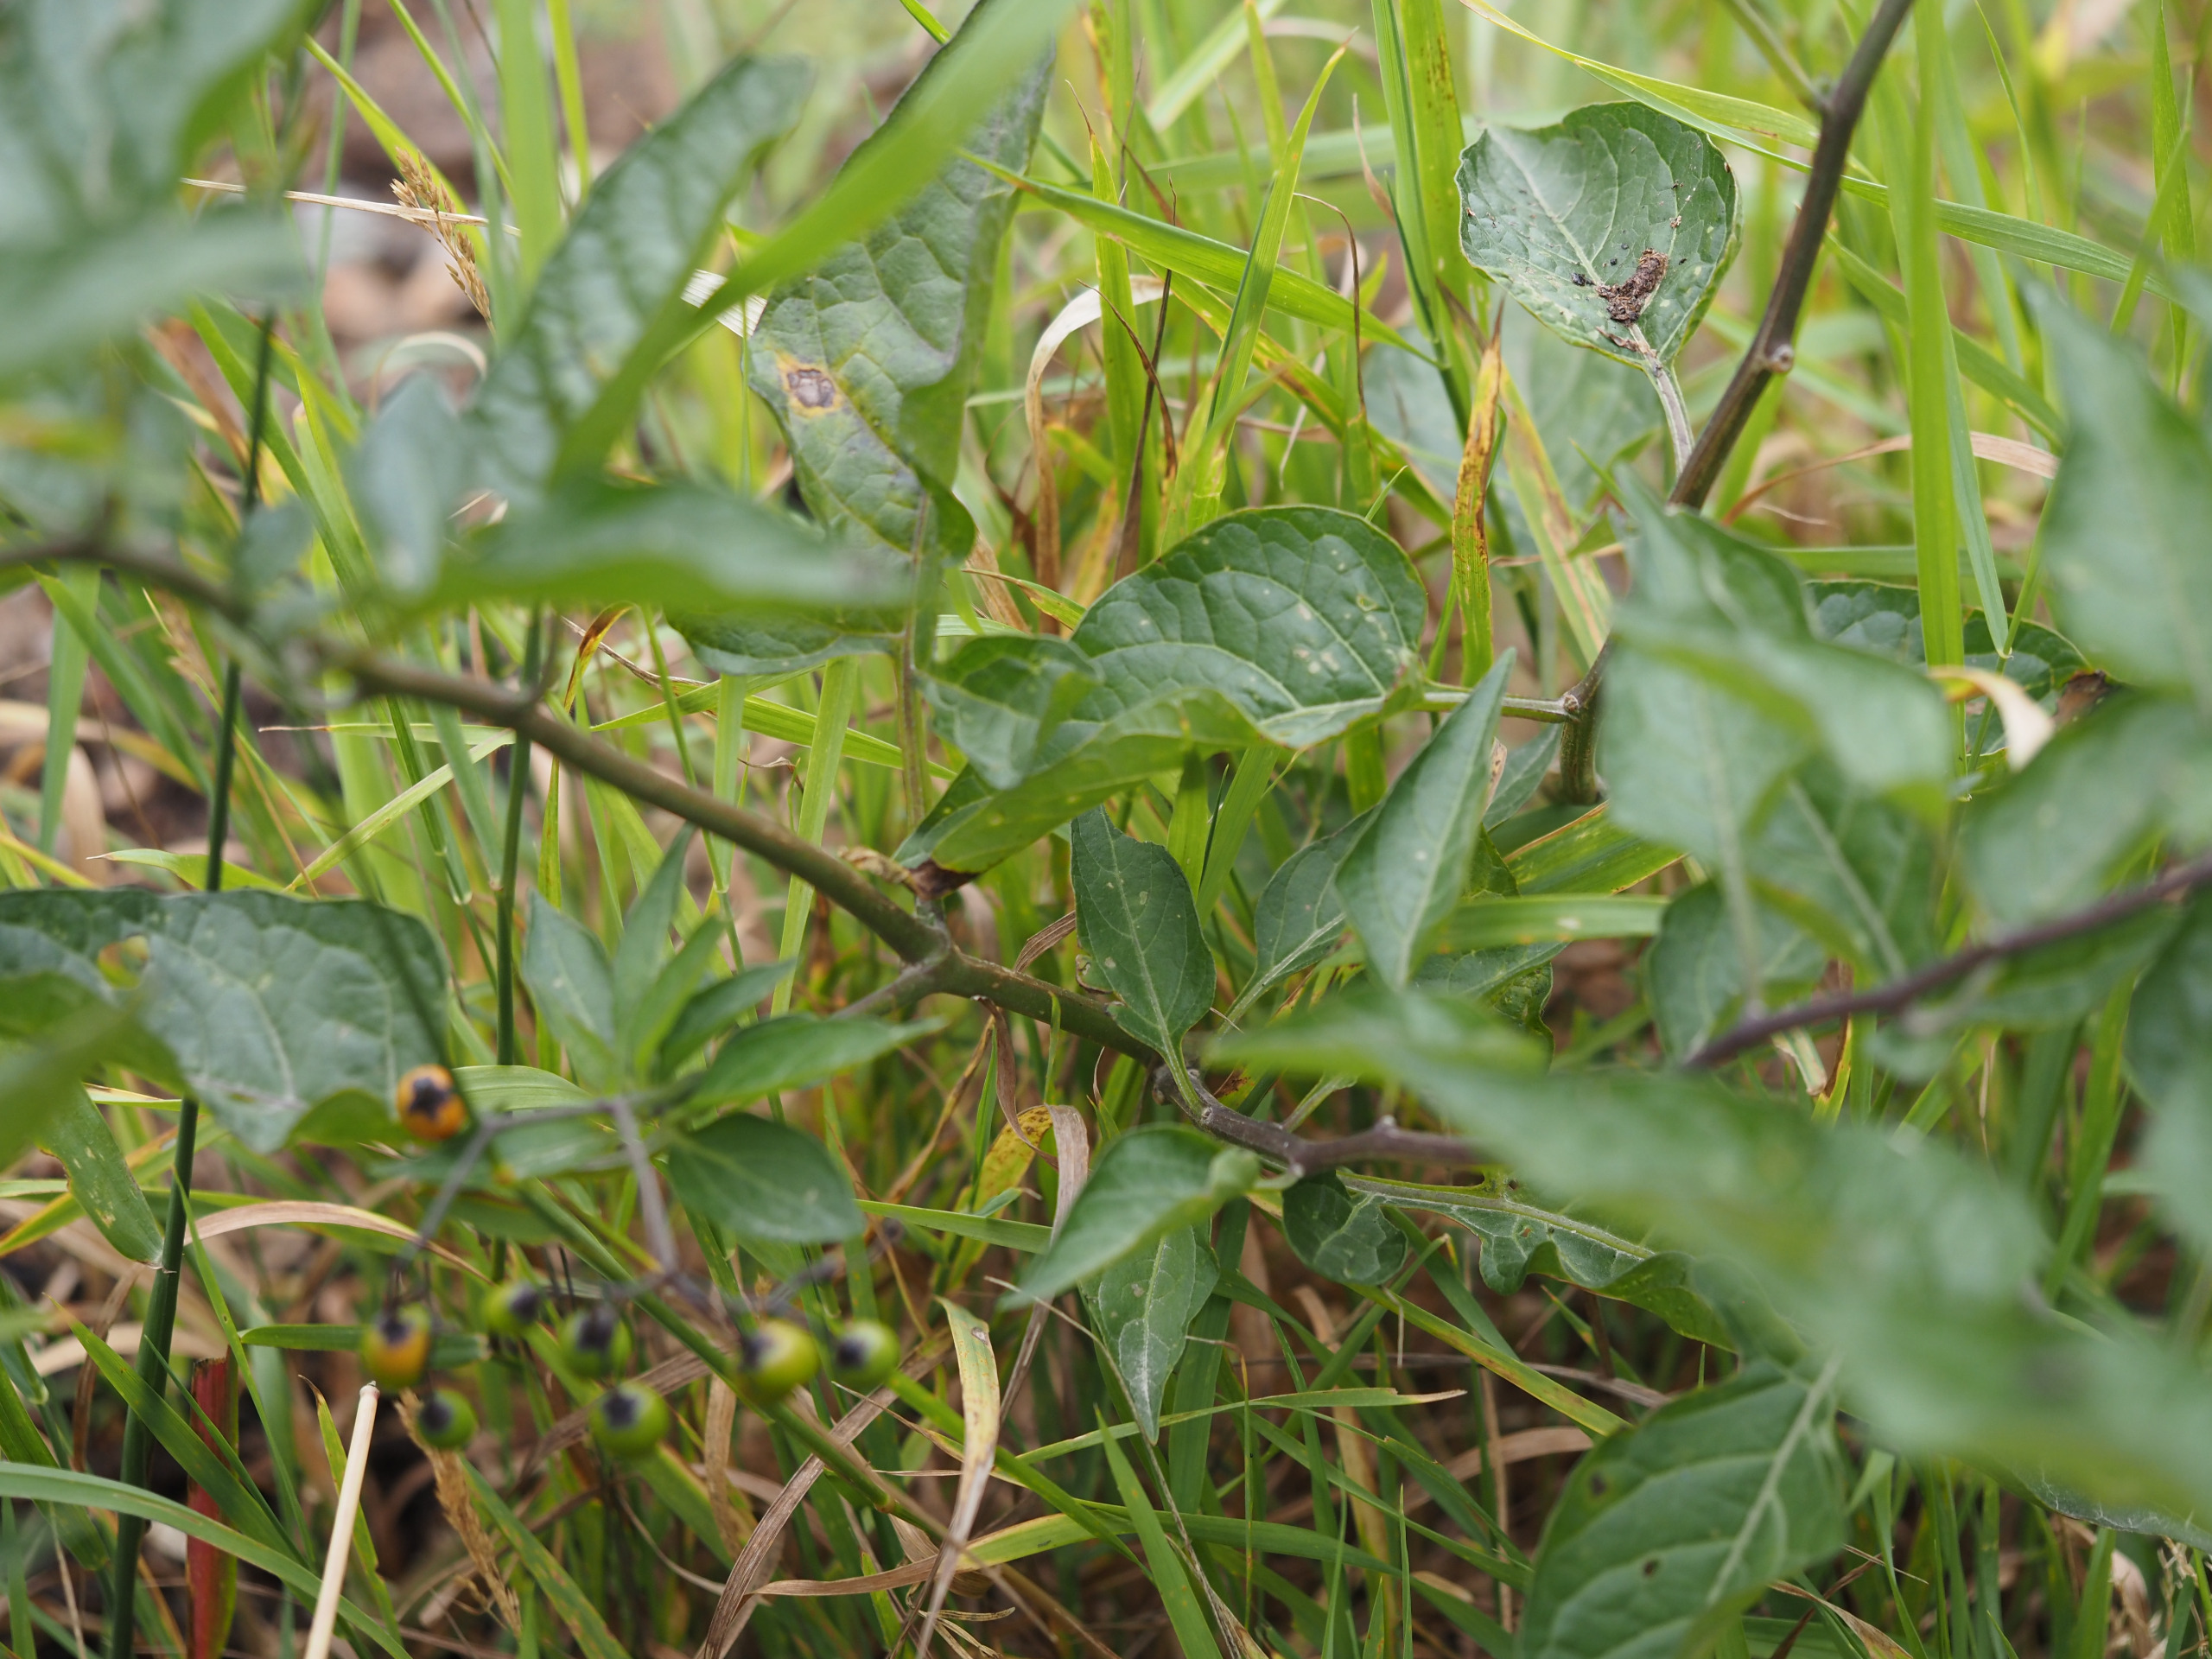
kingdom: Plantae
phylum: Tracheophyta
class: Magnoliopsida
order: Solanales
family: Solanaceae
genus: Solanum
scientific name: Solanum dulcamara
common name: Bittersød natskygge
